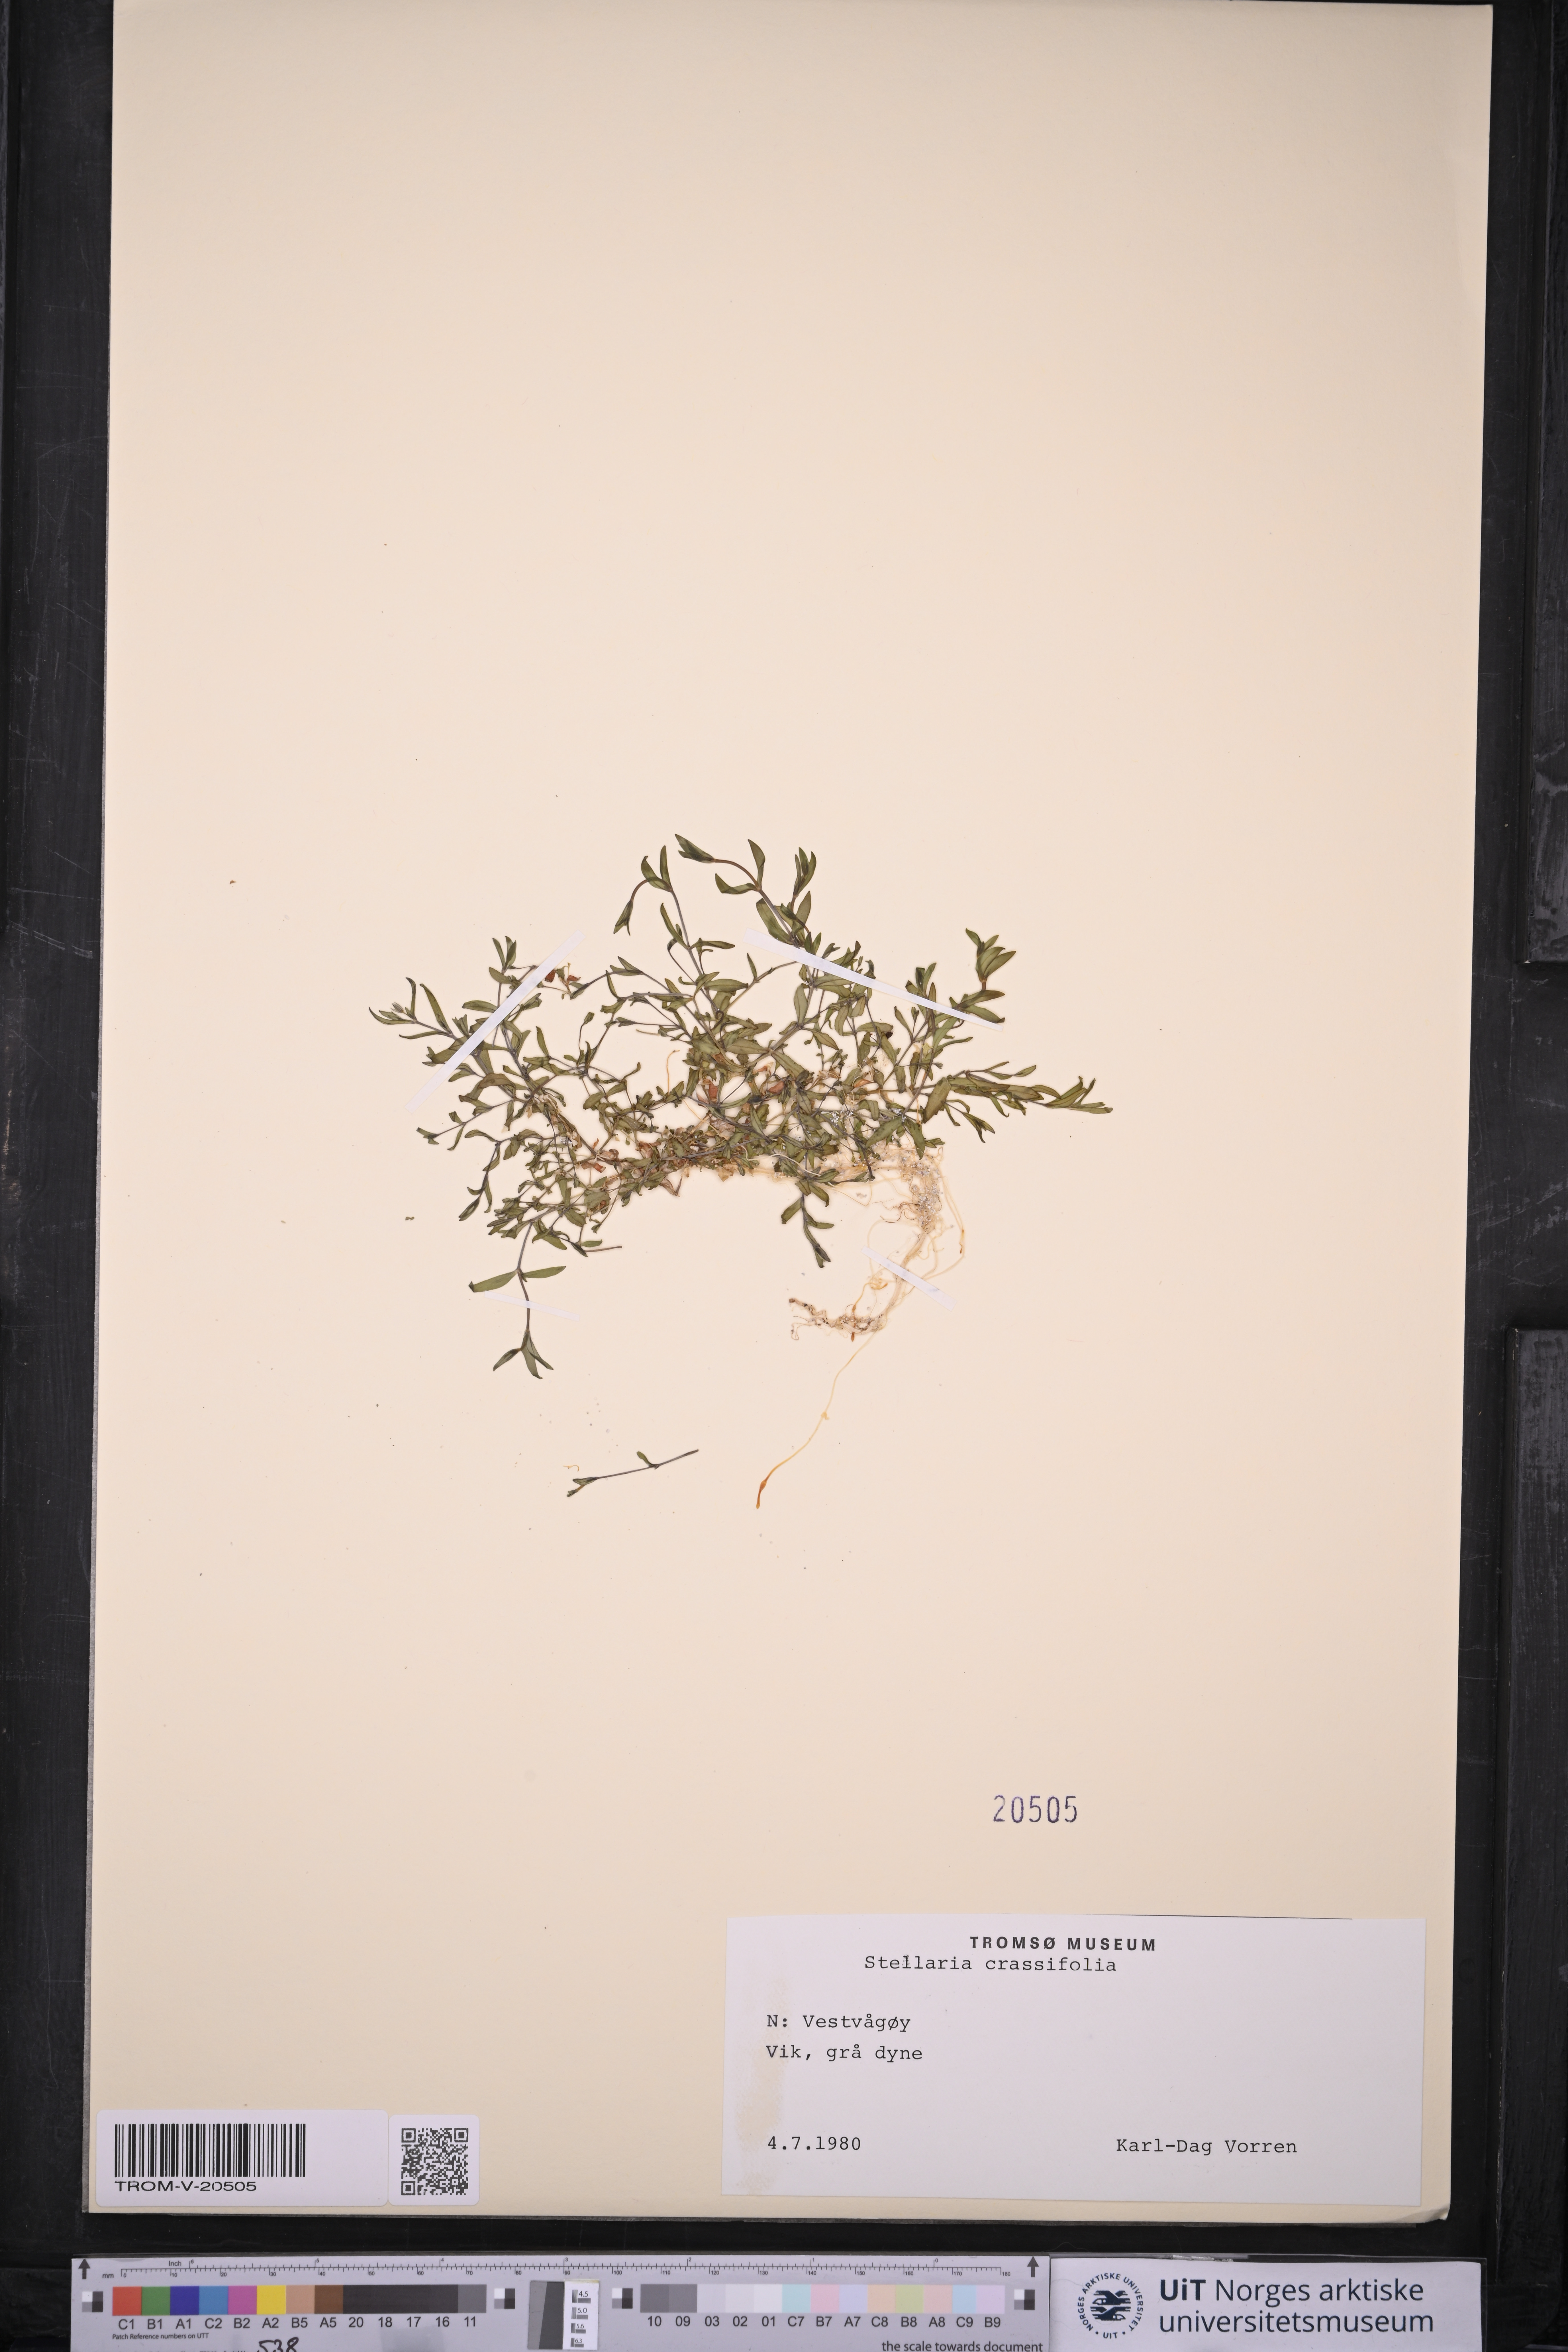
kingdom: Plantae
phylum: Tracheophyta
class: Magnoliopsida
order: Caryophyllales
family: Caryophyllaceae
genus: Stellaria
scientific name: Stellaria crassifolia
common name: Fleshy starwort
